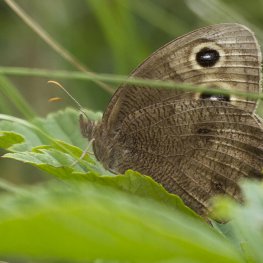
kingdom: Animalia
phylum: Arthropoda
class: Insecta
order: Lepidoptera
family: Nymphalidae
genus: Cercyonis
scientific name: Cercyonis pegala
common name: Common Wood-Nymph
